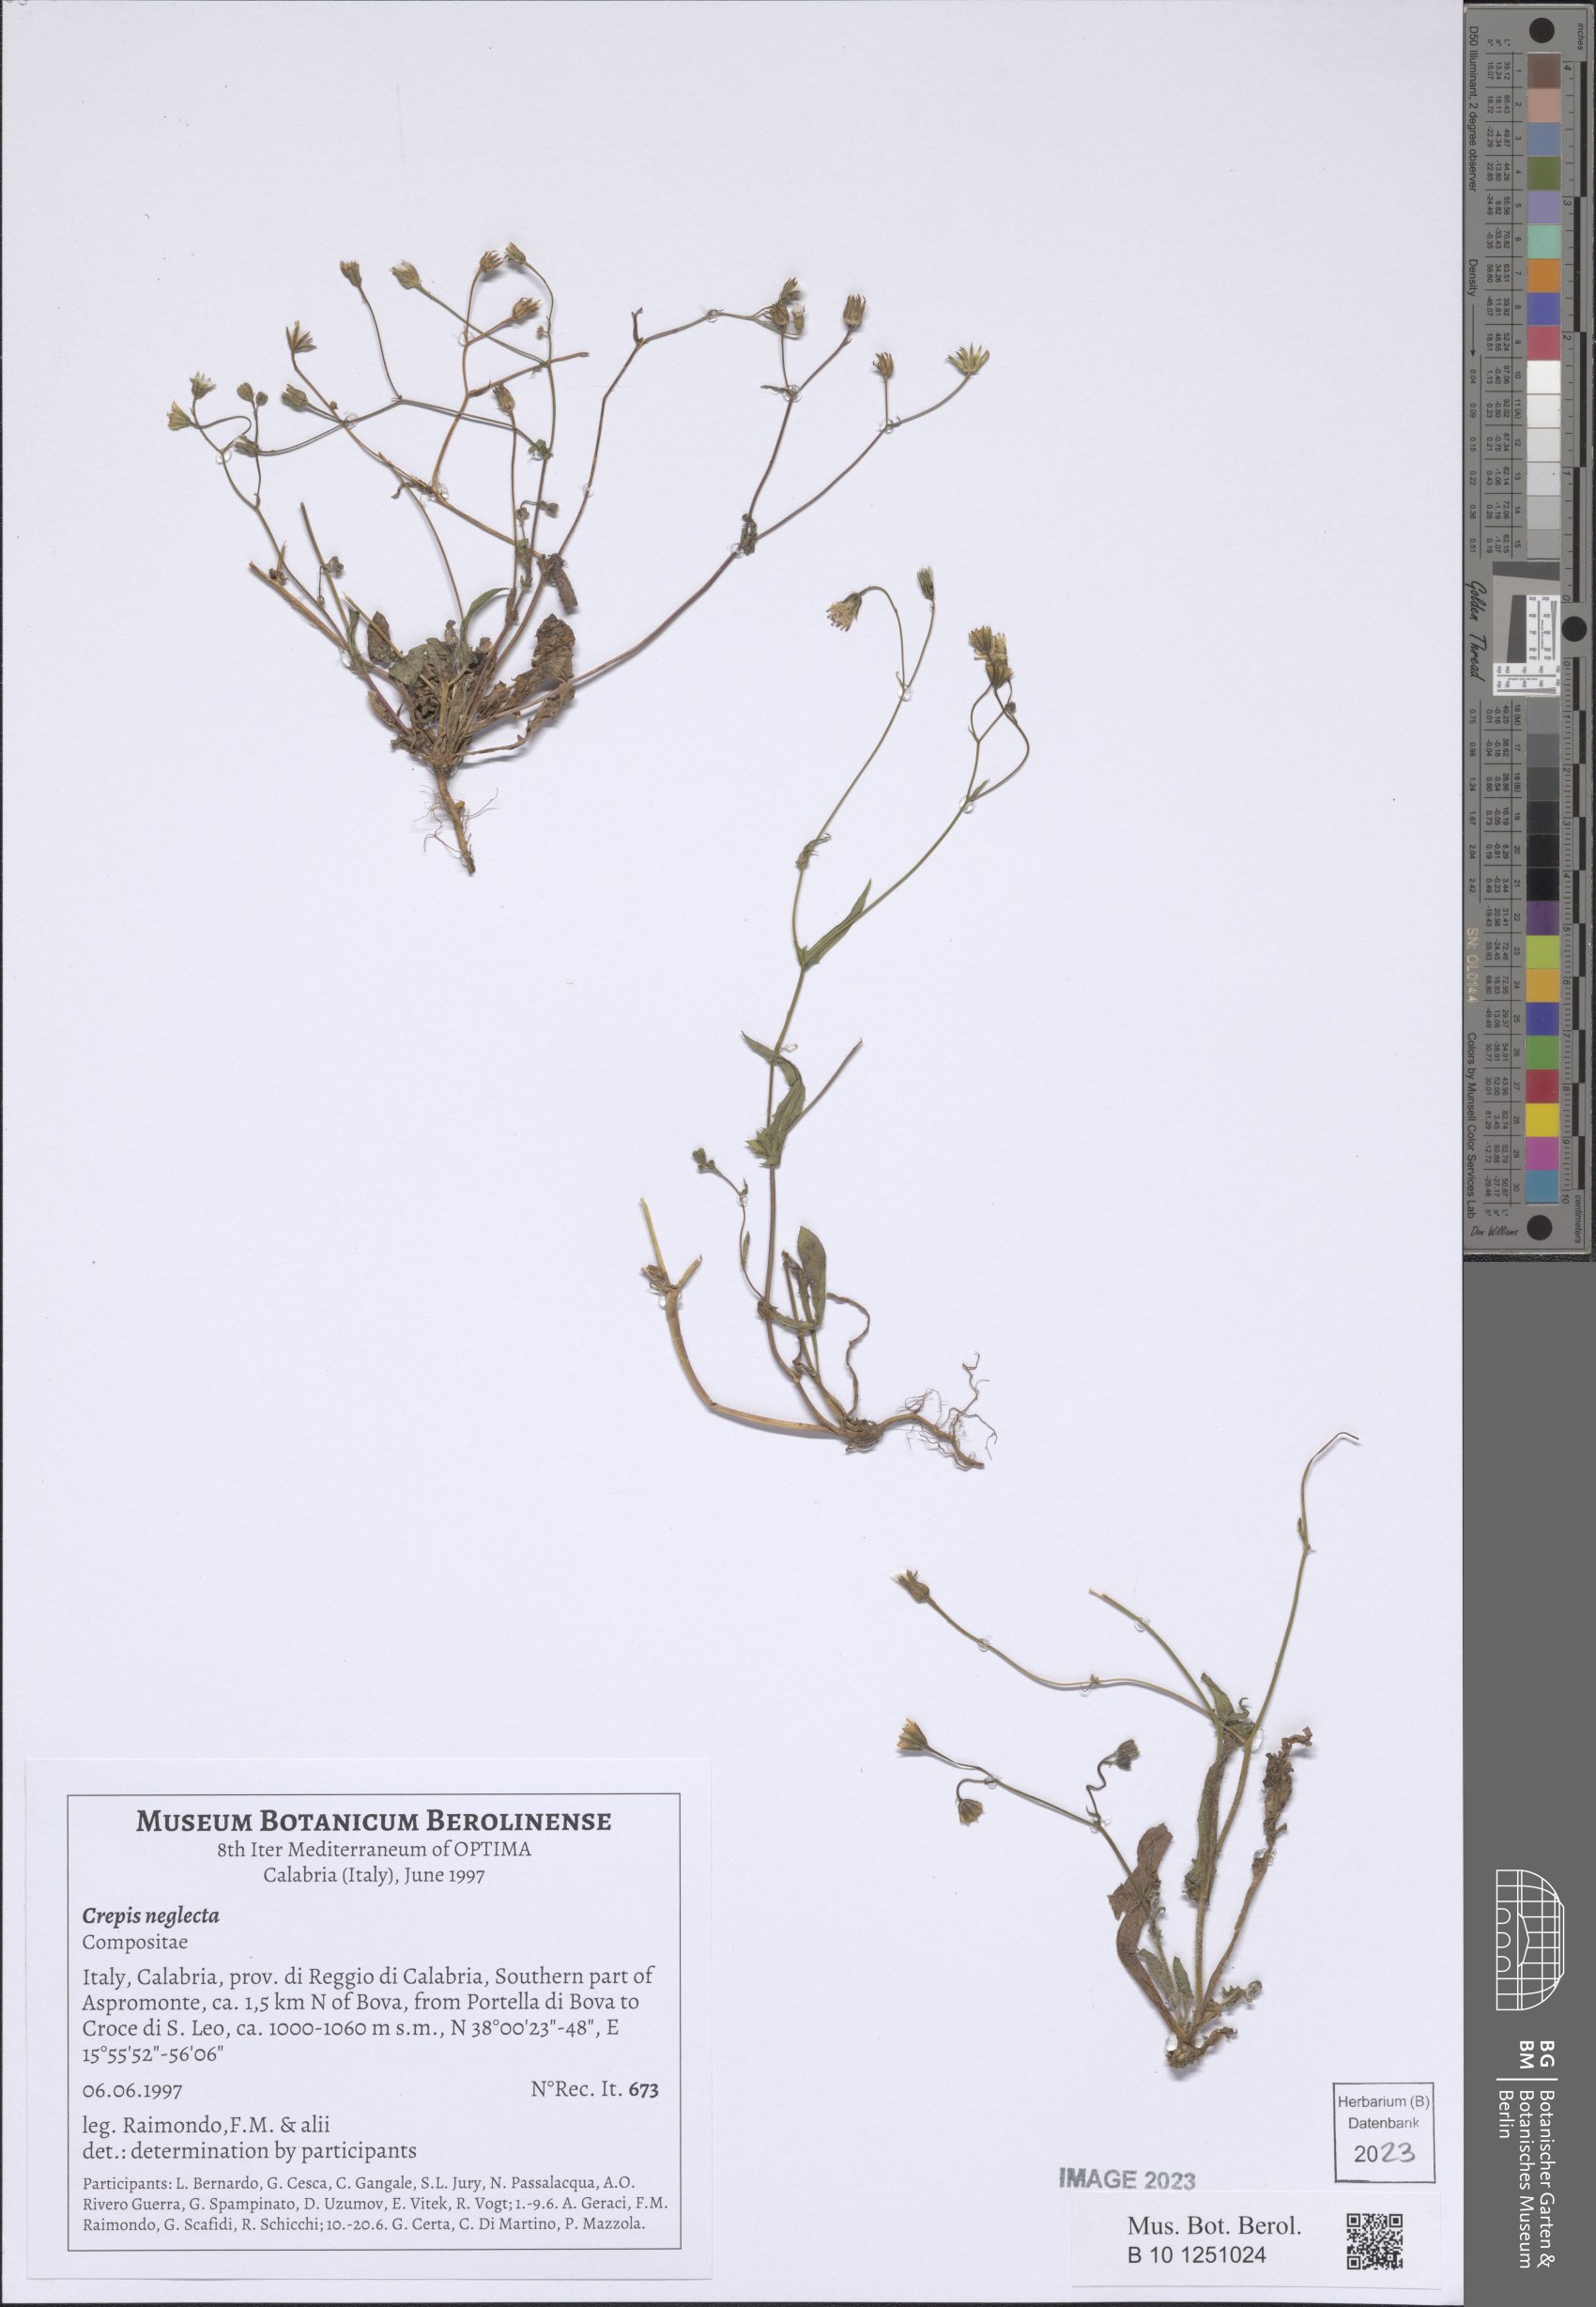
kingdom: Plantae
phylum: Tracheophyta
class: Magnoliopsida
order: Asterales
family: Asteraceae
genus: Crepis
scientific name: Crepis neglecta
